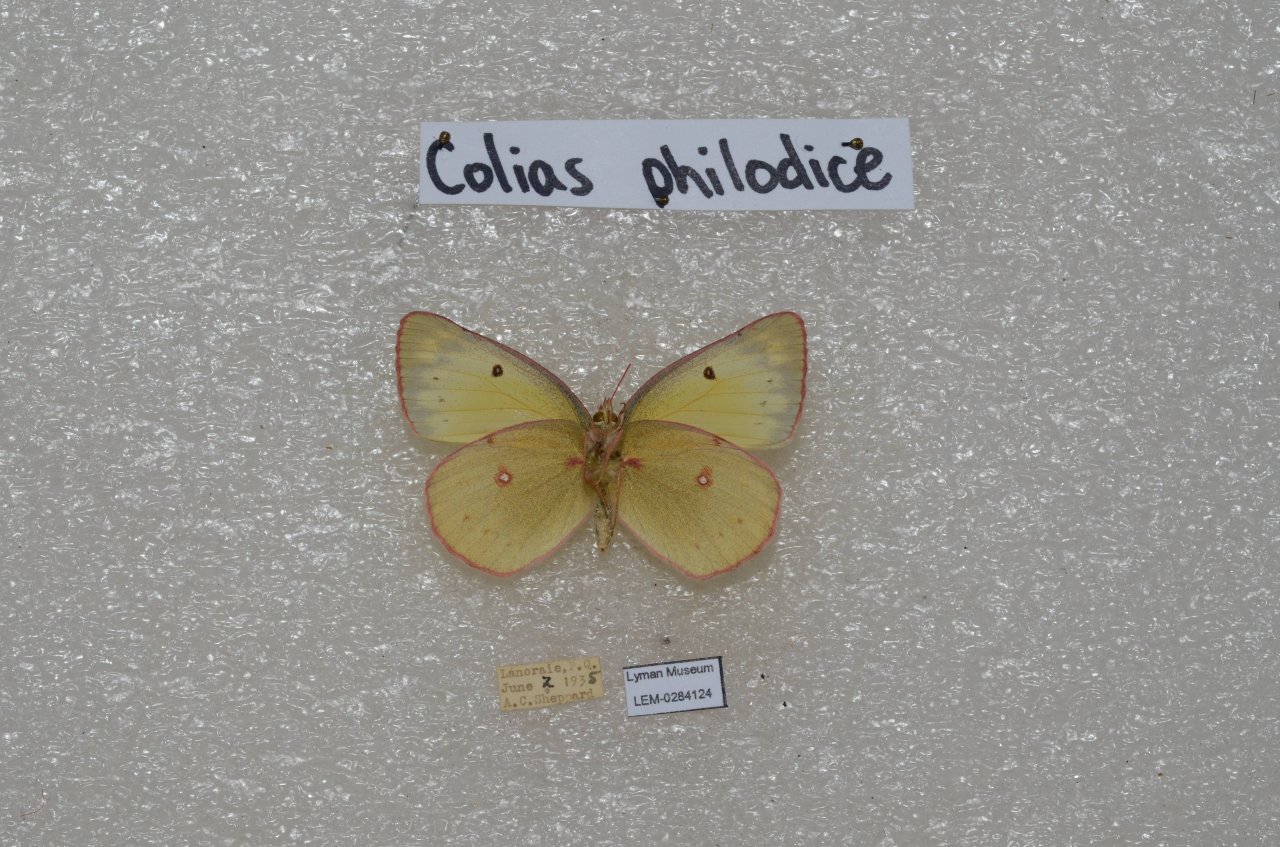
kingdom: Animalia
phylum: Arthropoda
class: Insecta
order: Lepidoptera
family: Pieridae
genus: Colias
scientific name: Colias philodice
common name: Clouded Sulphur
